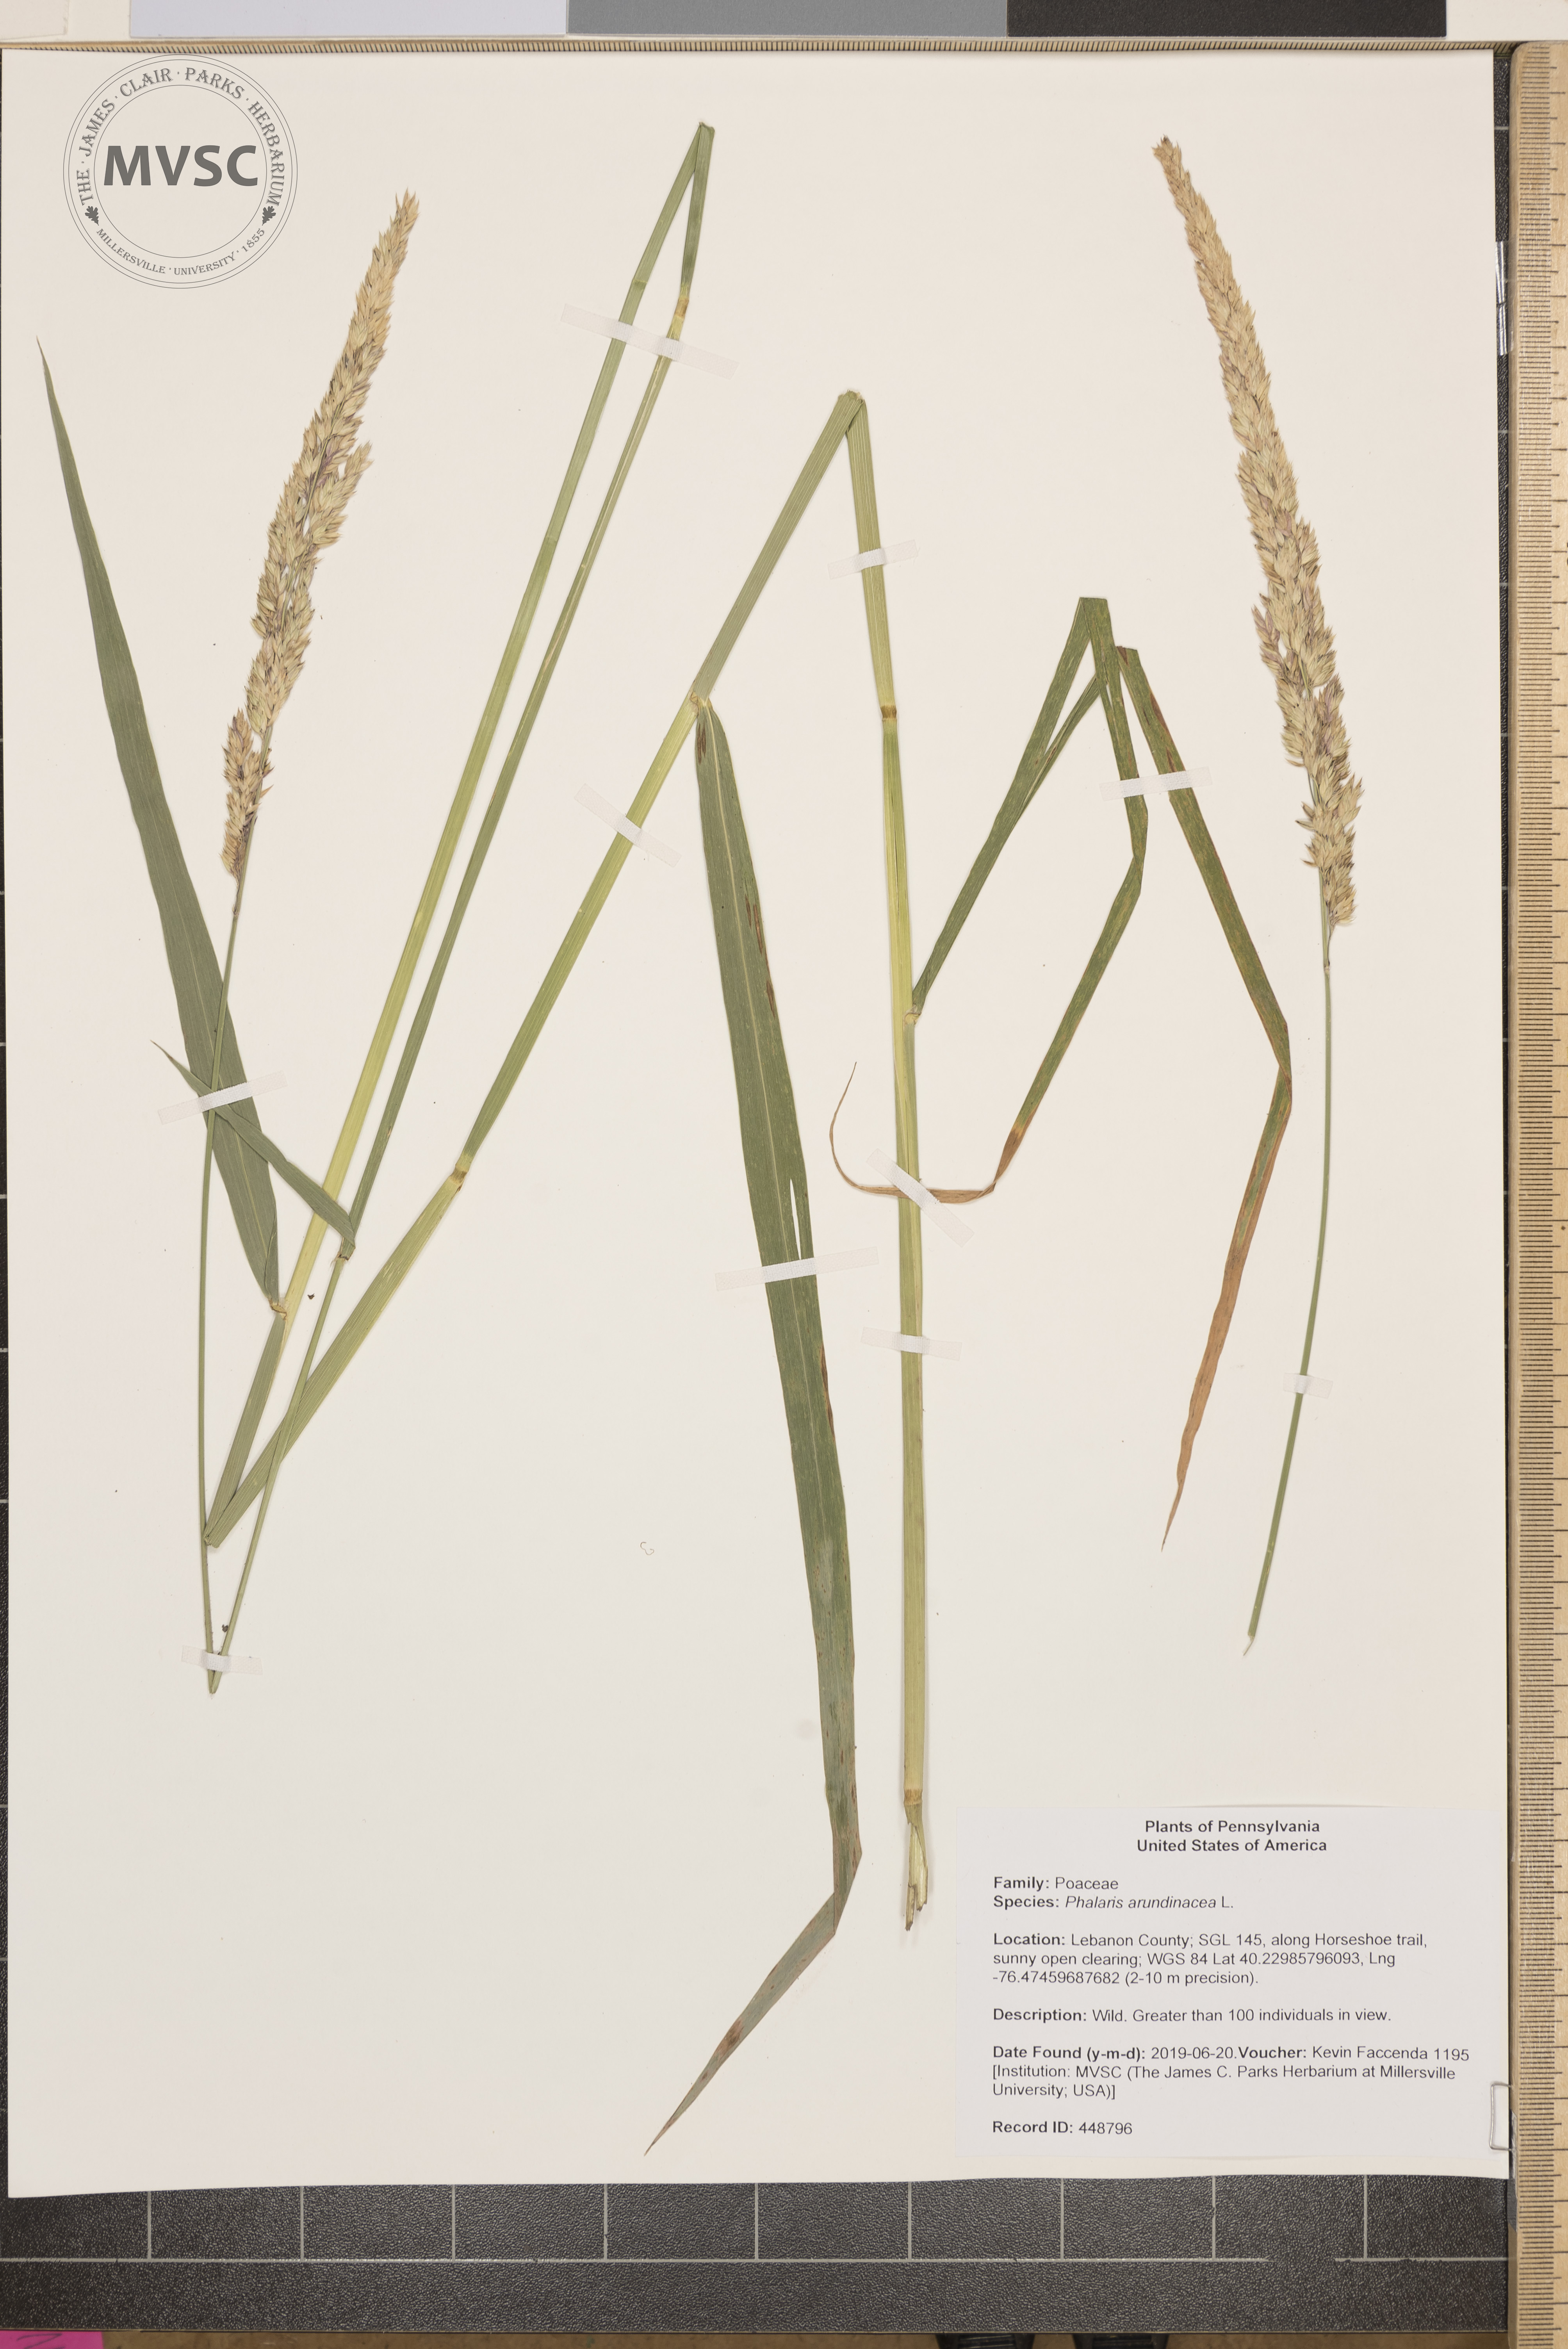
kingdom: Plantae
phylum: Tracheophyta
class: Liliopsida
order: Poales
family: Poaceae
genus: Phalaris
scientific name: Phalaris arundinacea
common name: Reed canary-grass
